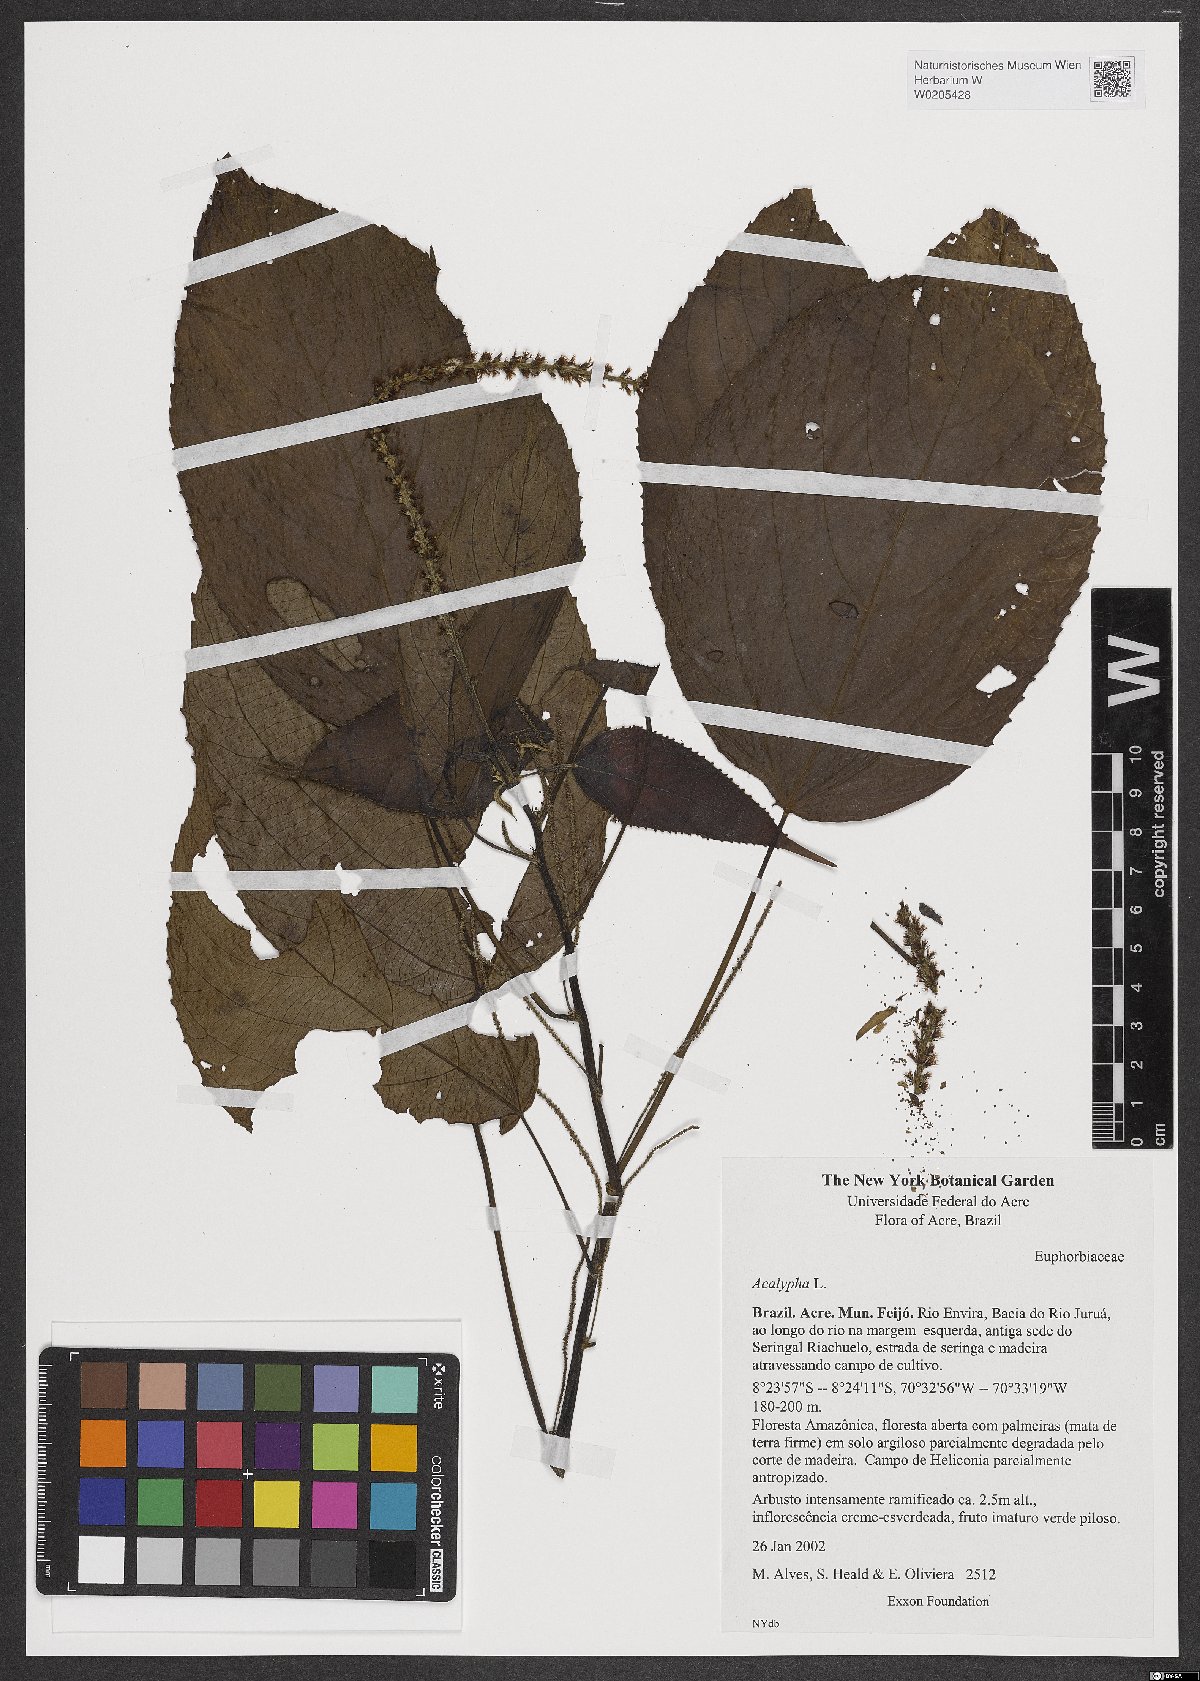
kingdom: Plantae
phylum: Tracheophyta
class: Magnoliopsida
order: Malpighiales
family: Euphorbiaceae
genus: Acalypha
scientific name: Acalypha
